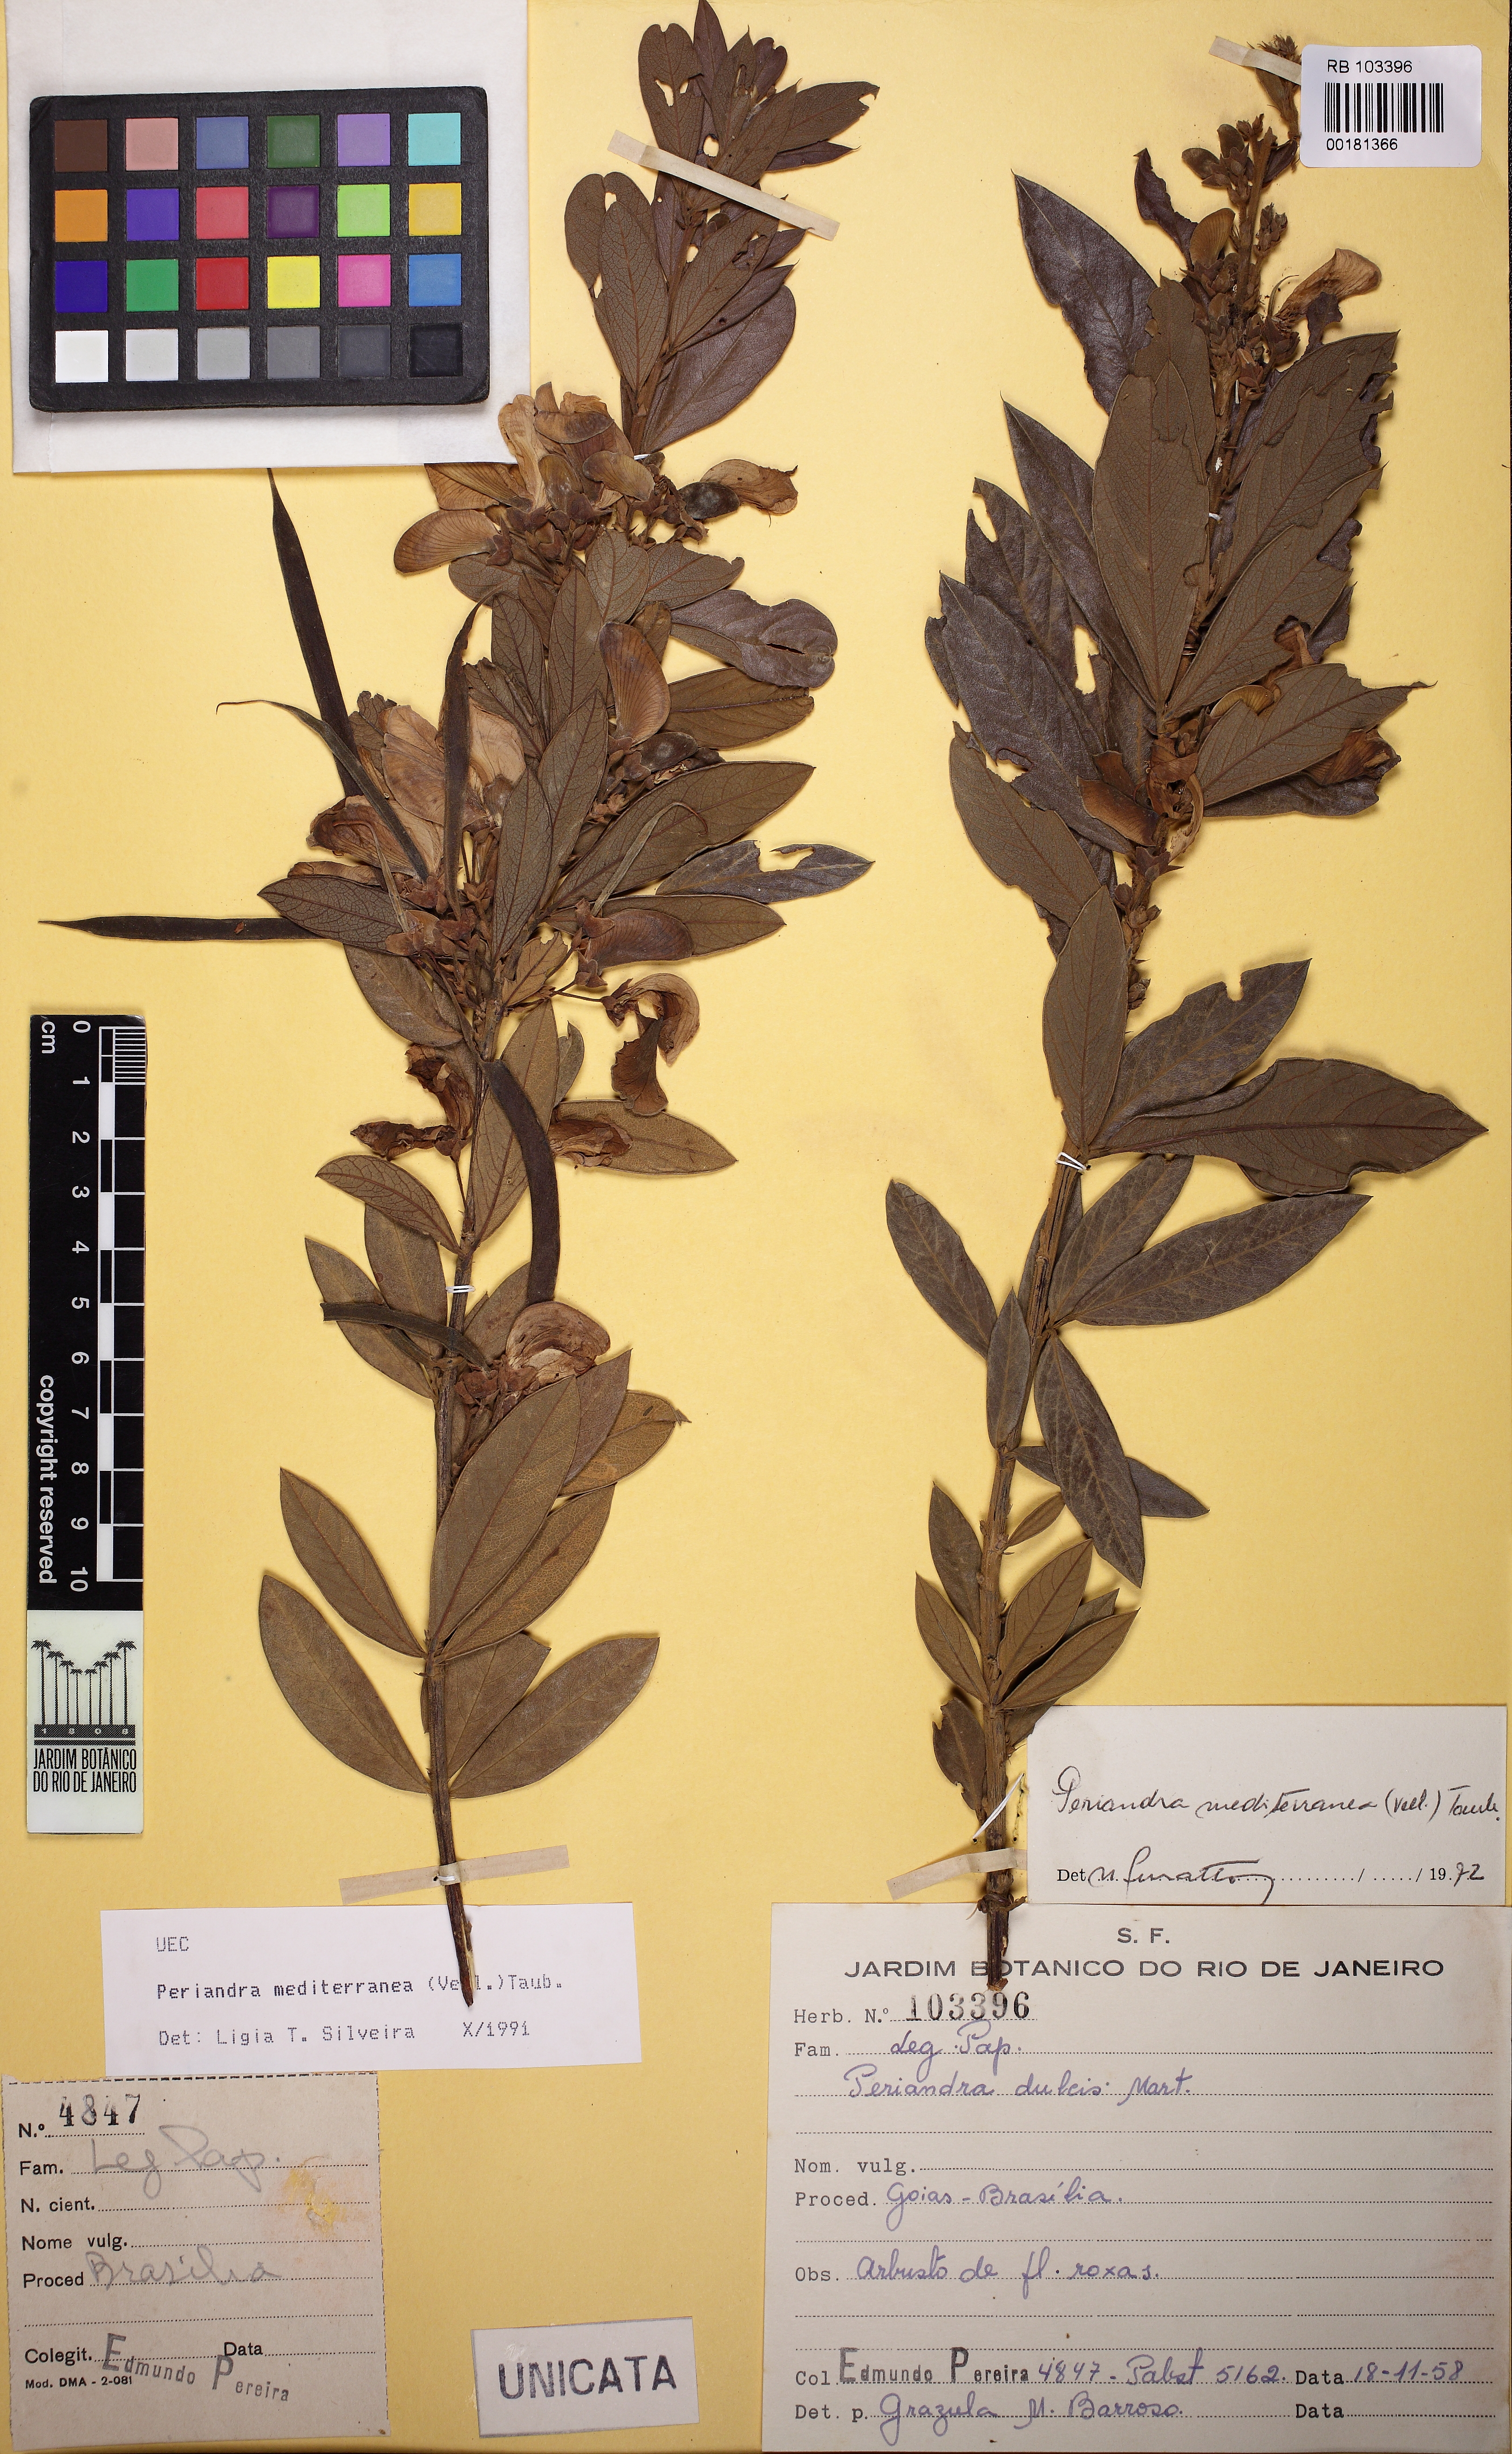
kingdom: Plantae
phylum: Tracheophyta
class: Magnoliopsida
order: Fabales
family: Fabaceae
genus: Periandra
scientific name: Periandra mediterranea
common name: Brazilian licorice
